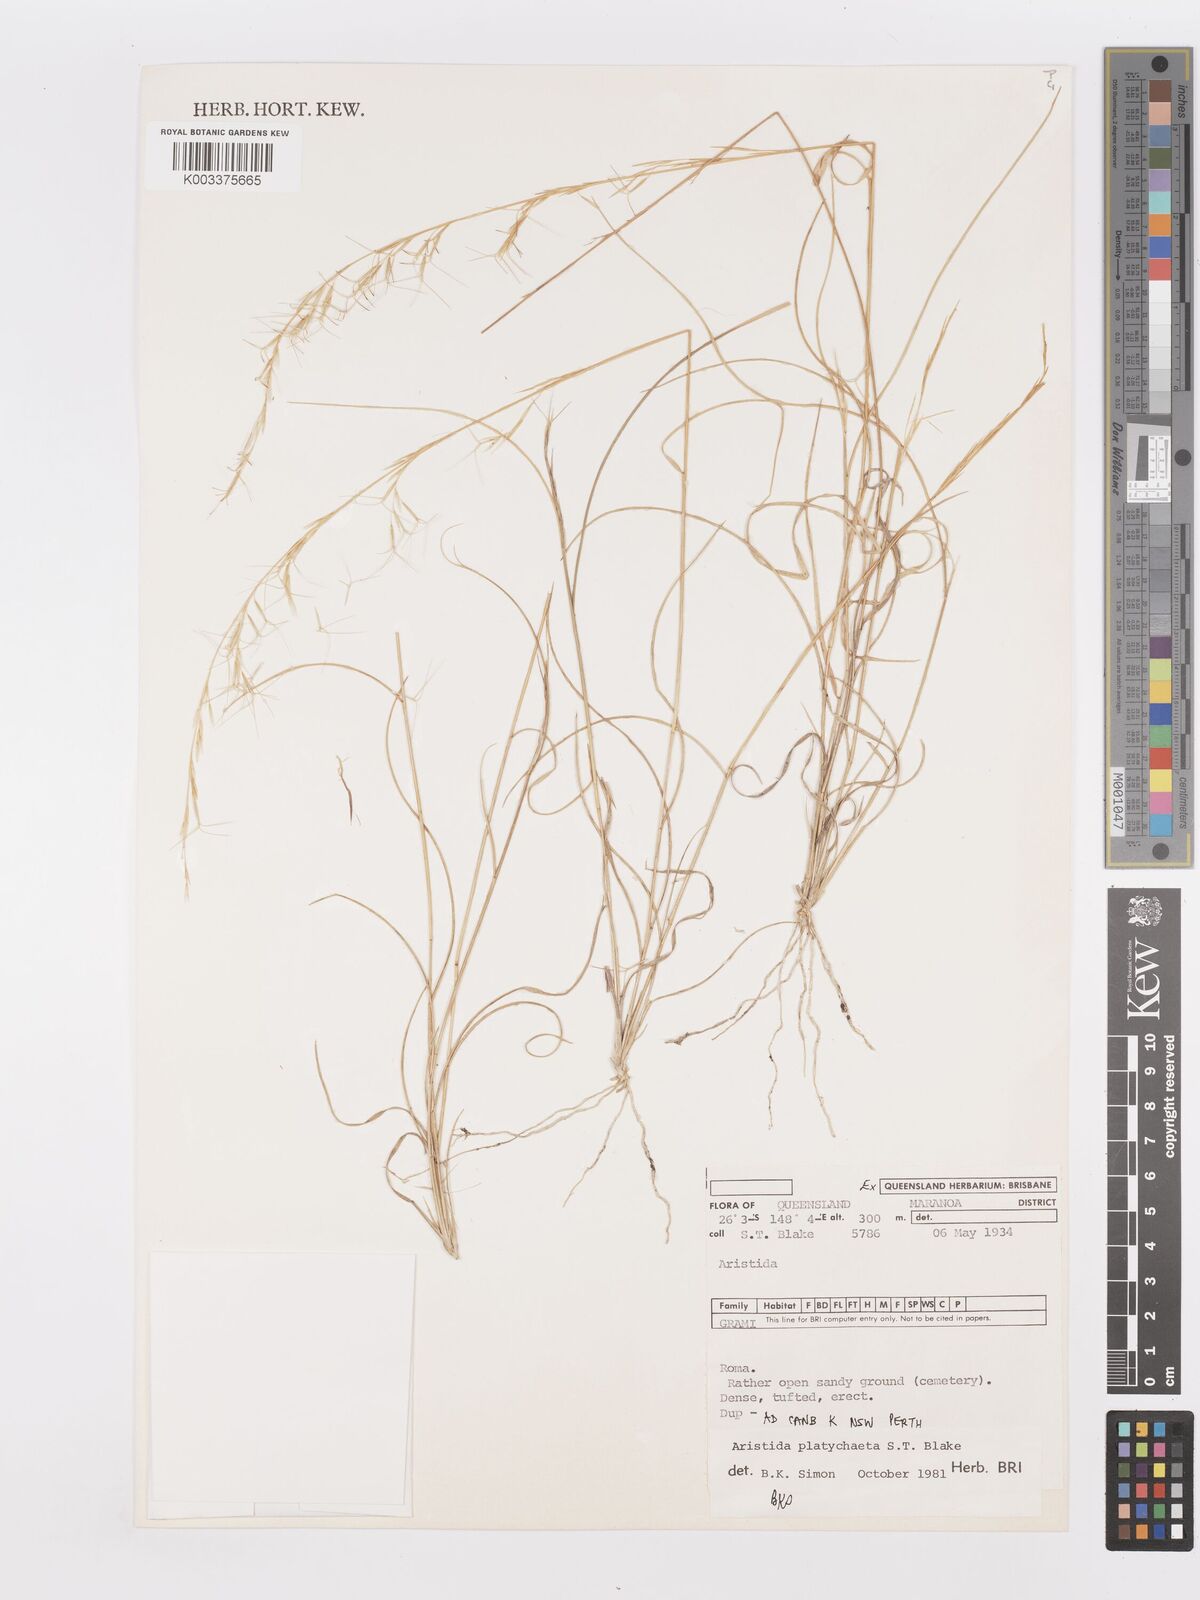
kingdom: Plantae
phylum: Tracheophyta
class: Liliopsida
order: Poales
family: Poaceae
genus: Aristida
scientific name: Aristida platychaeta
